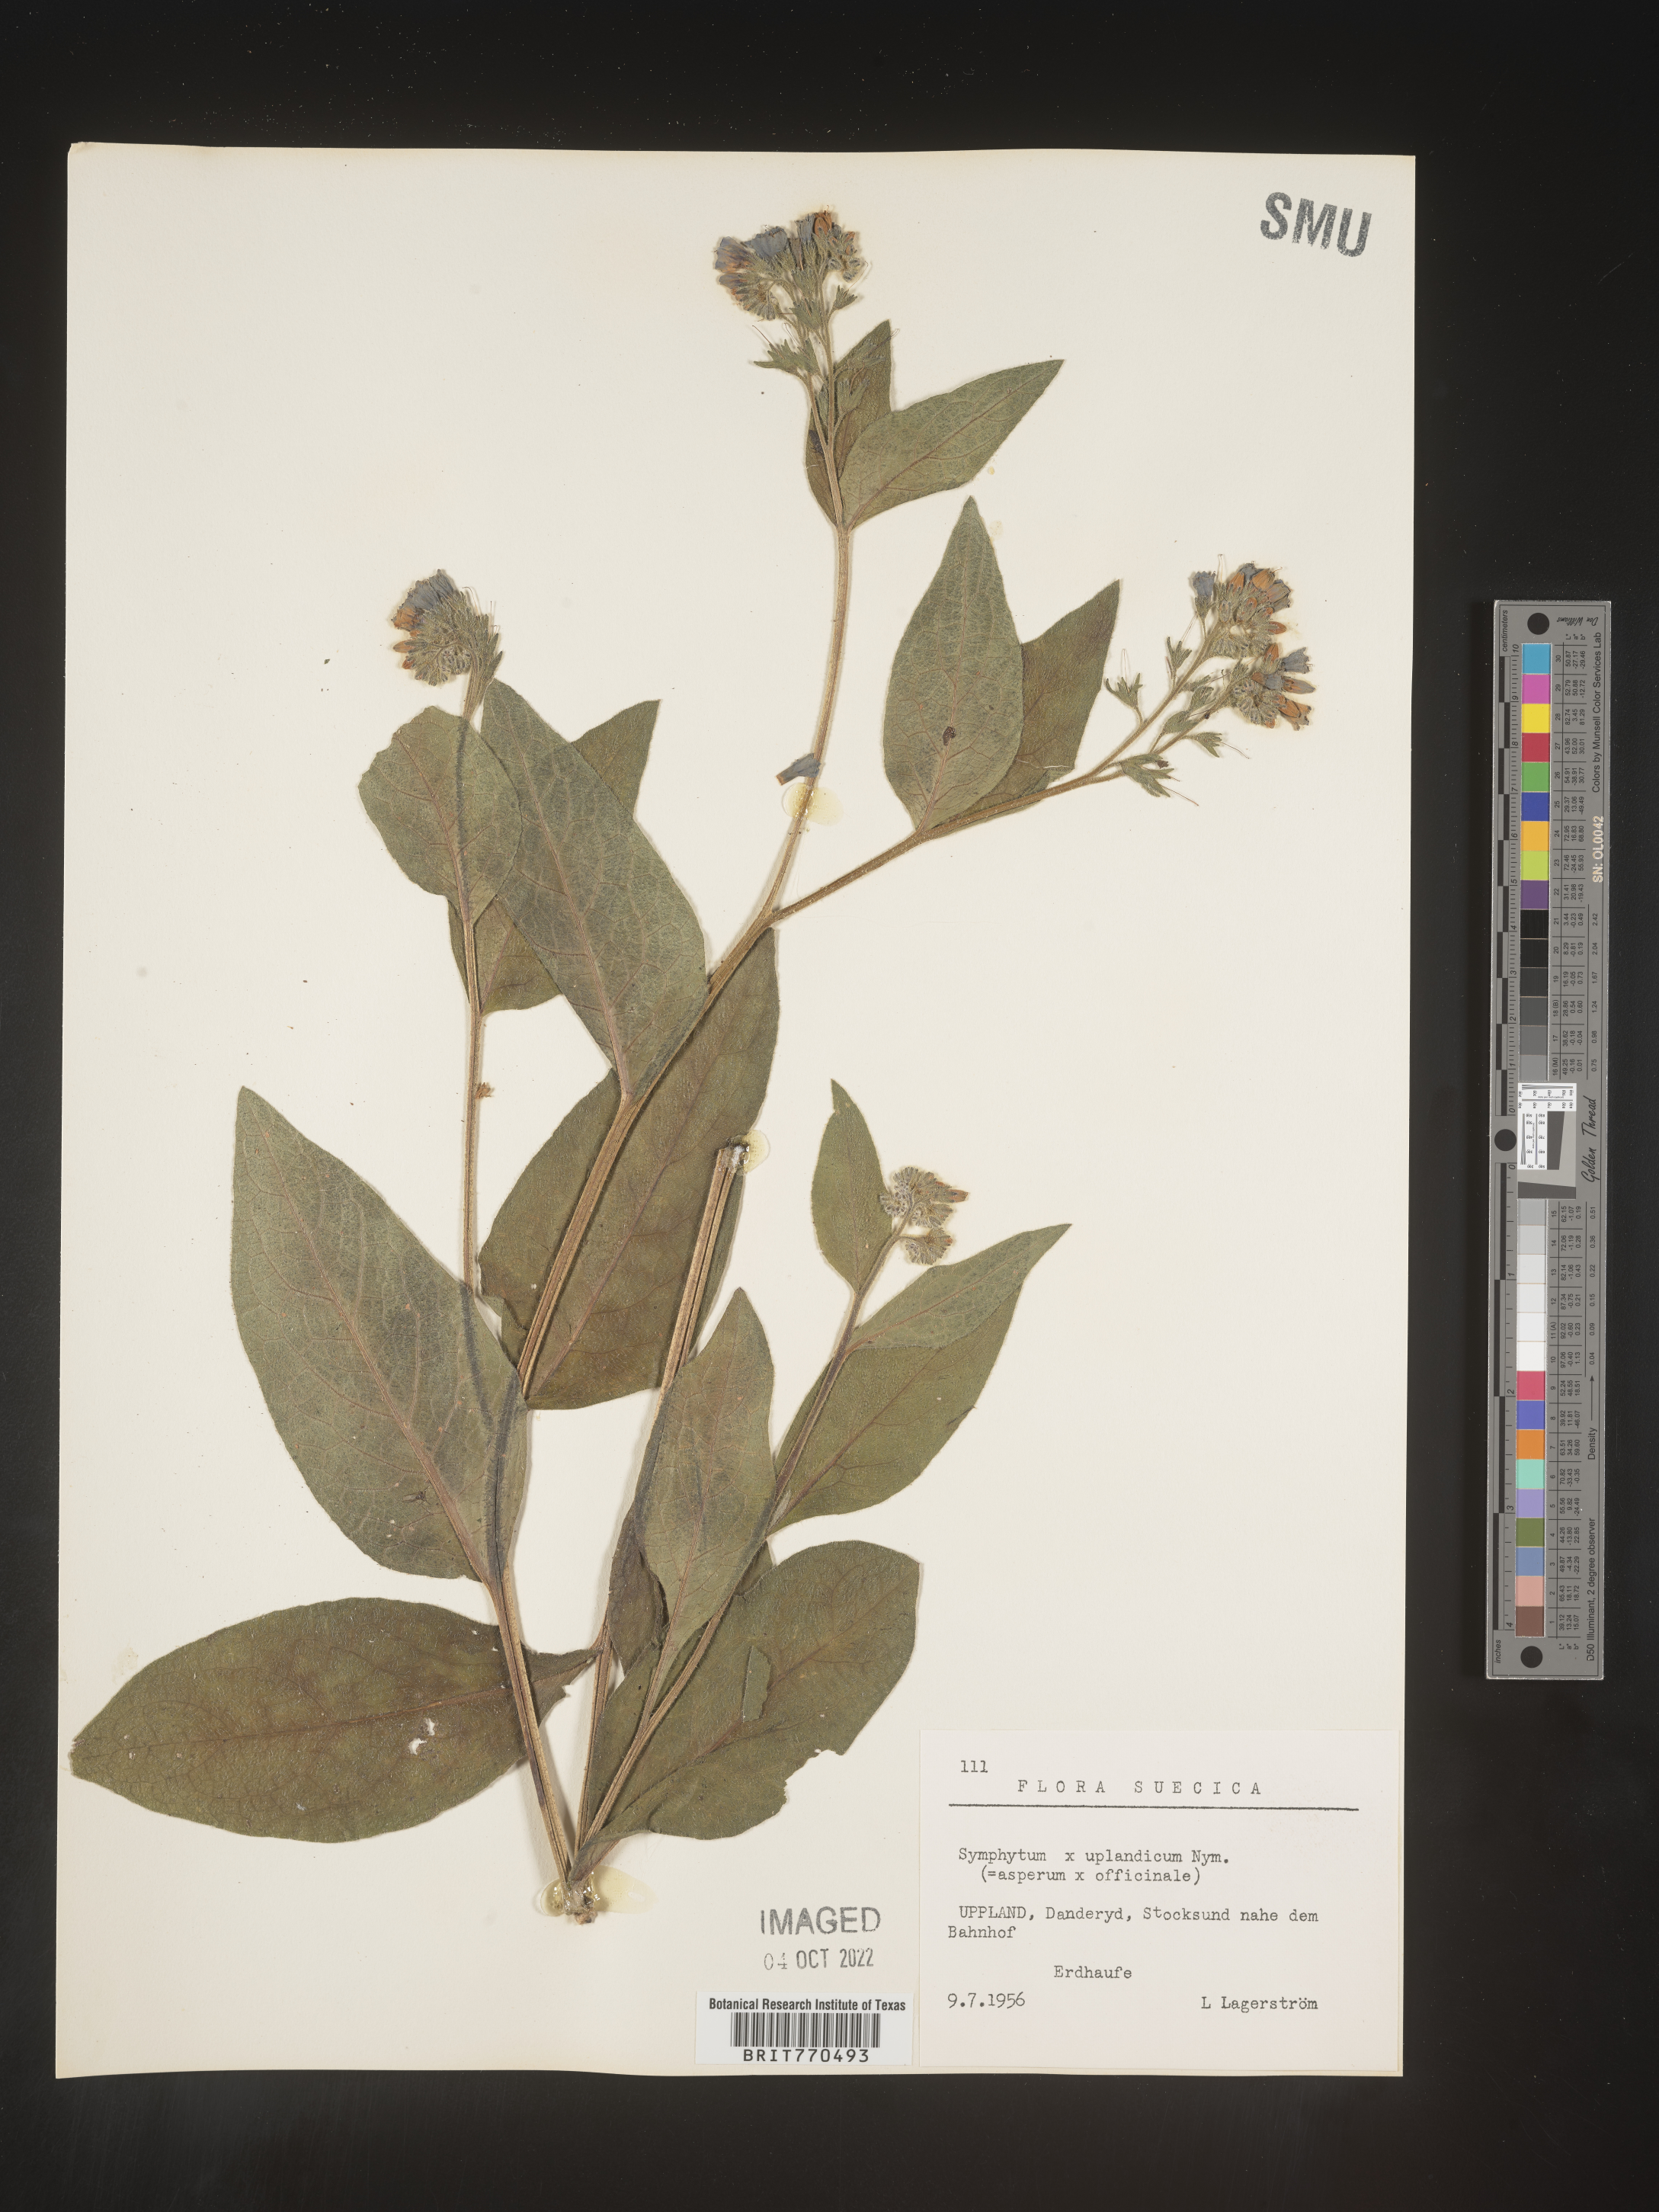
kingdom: Plantae
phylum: Tracheophyta
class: Magnoliopsida
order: Boraginales
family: Boraginaceae
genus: Symphytum
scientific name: Symphytum
